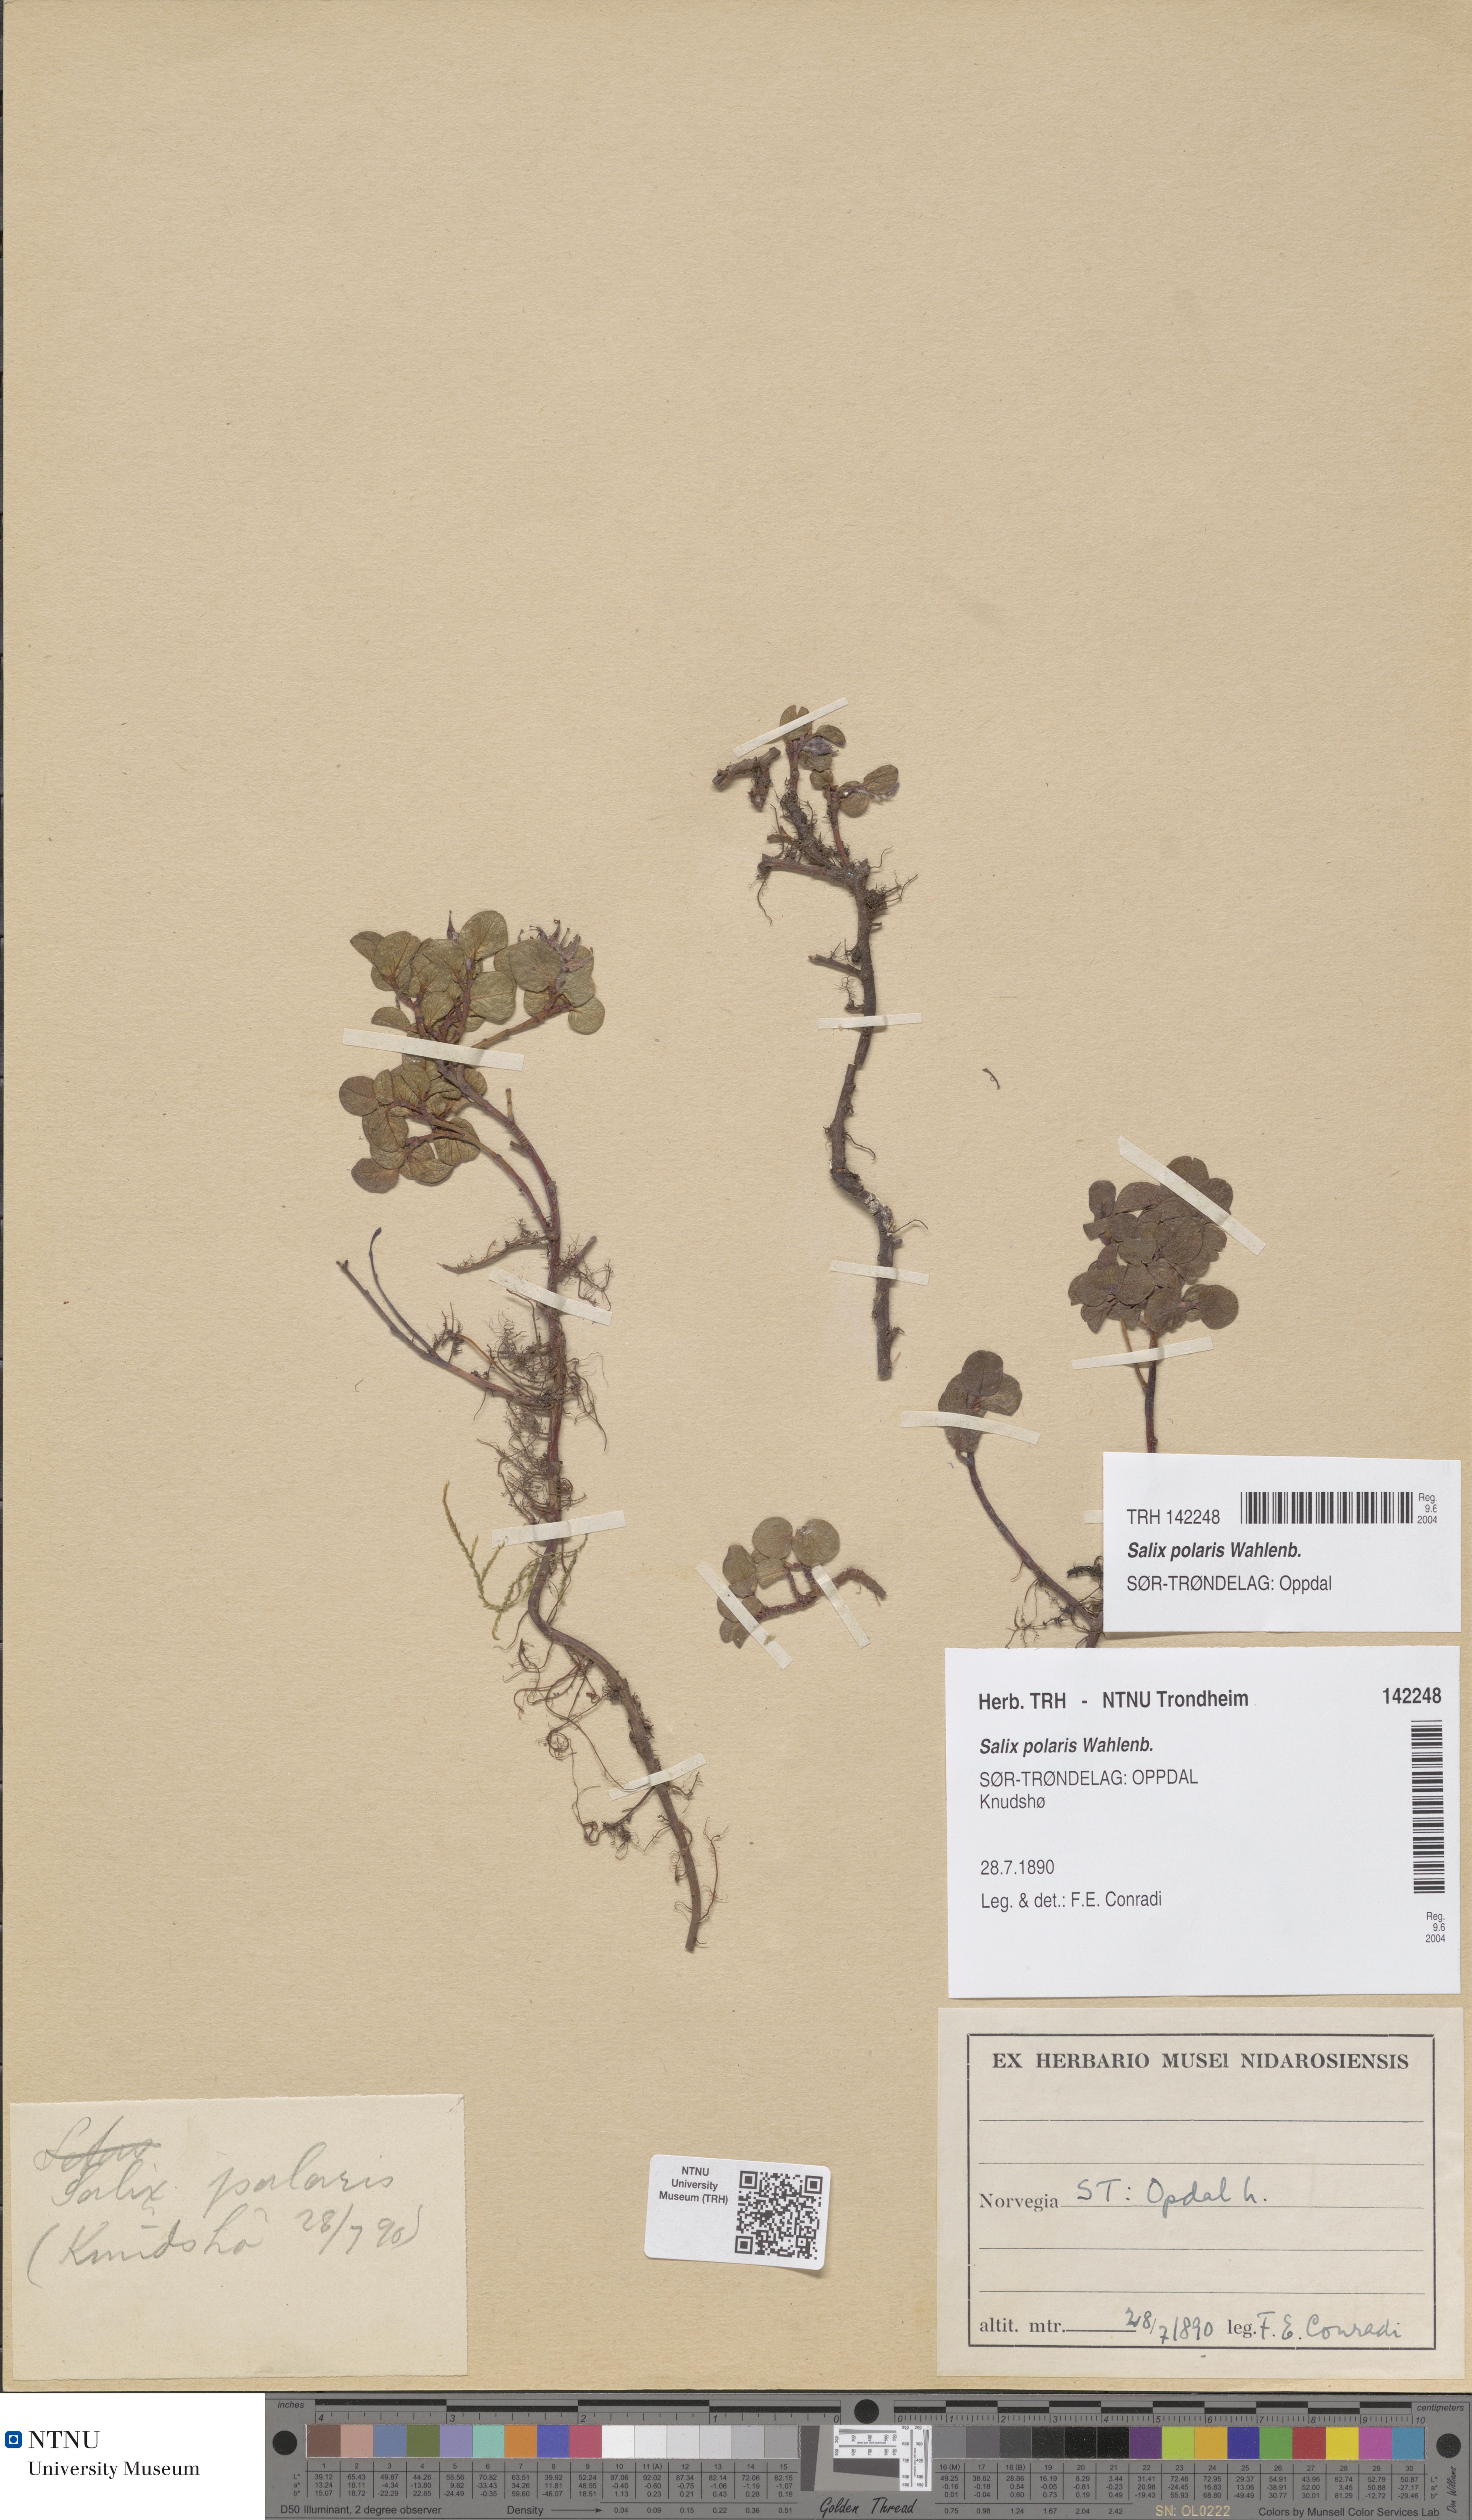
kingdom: Plantae
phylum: Tracheophyta
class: Magnoliopsida
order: Malpighiales
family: Salicaceae
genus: Salix
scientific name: Salix polaris
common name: Polar willow
